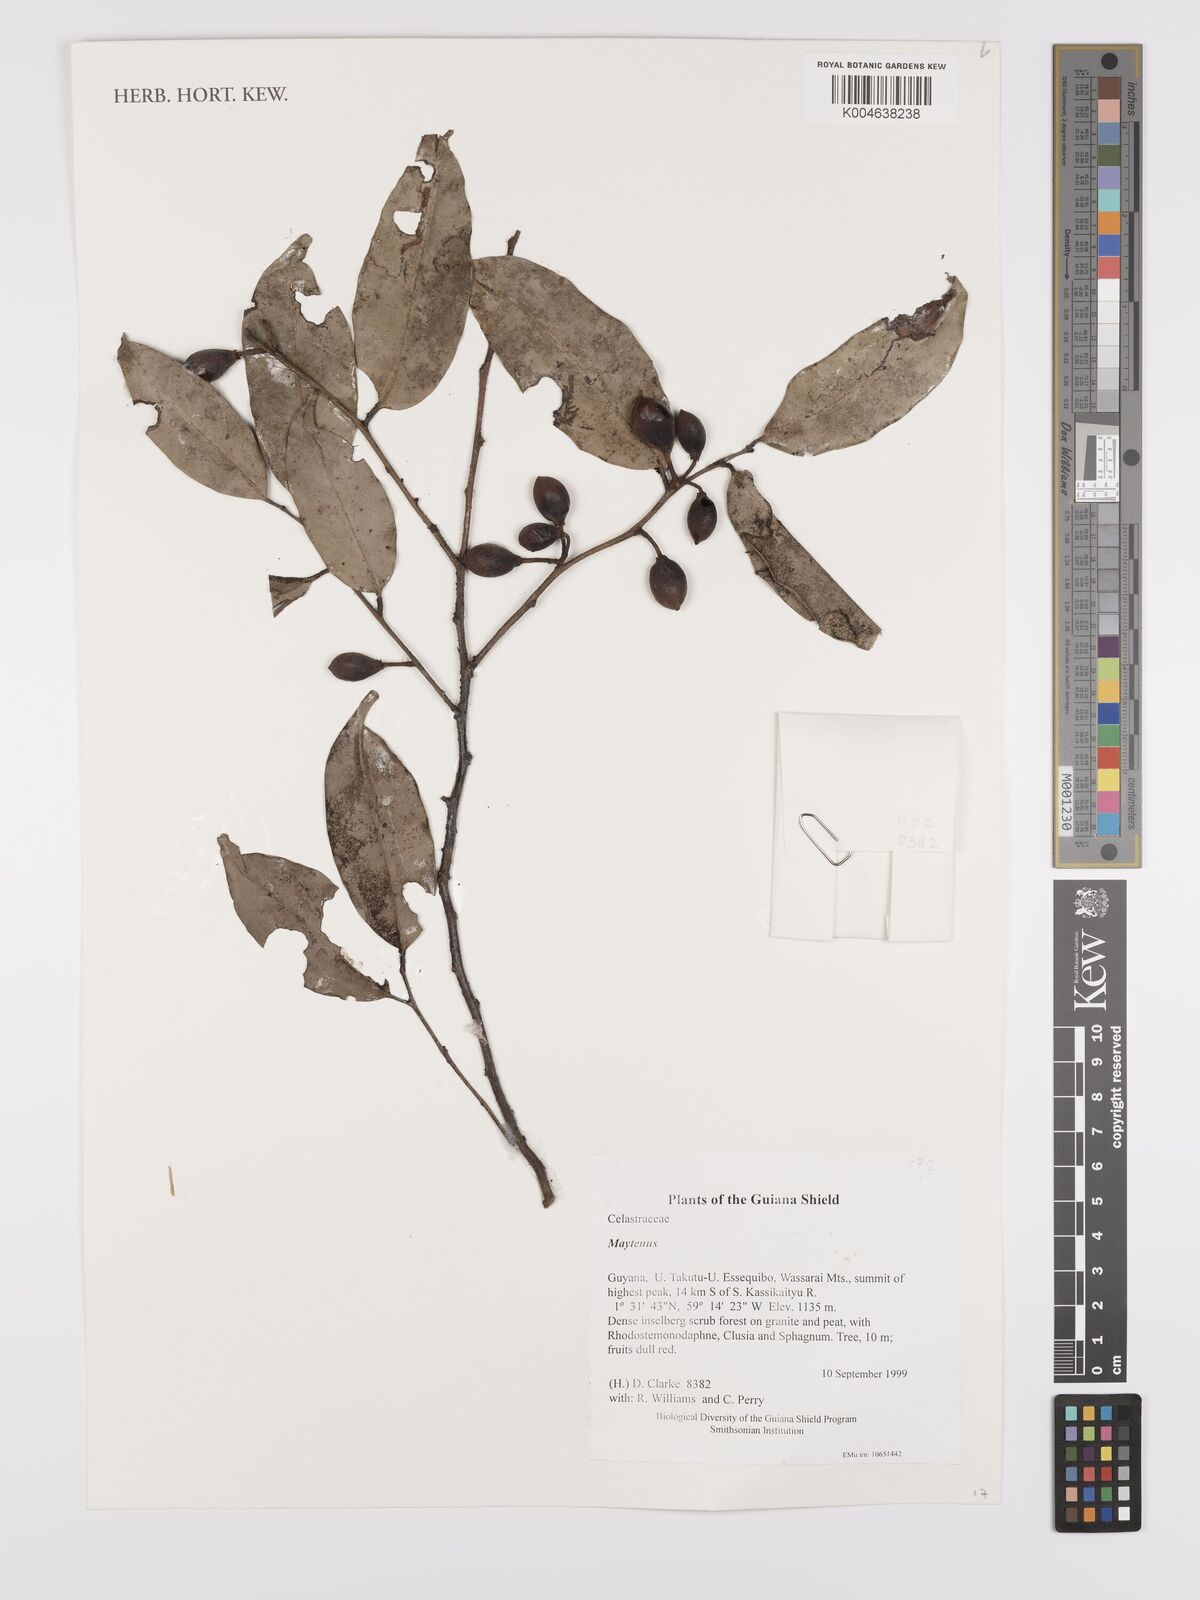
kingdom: Plantae
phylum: Tracheophyta
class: Magnoliopsida
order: Celastrales
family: Celastraceae
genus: Maytenus
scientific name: Maytenus
